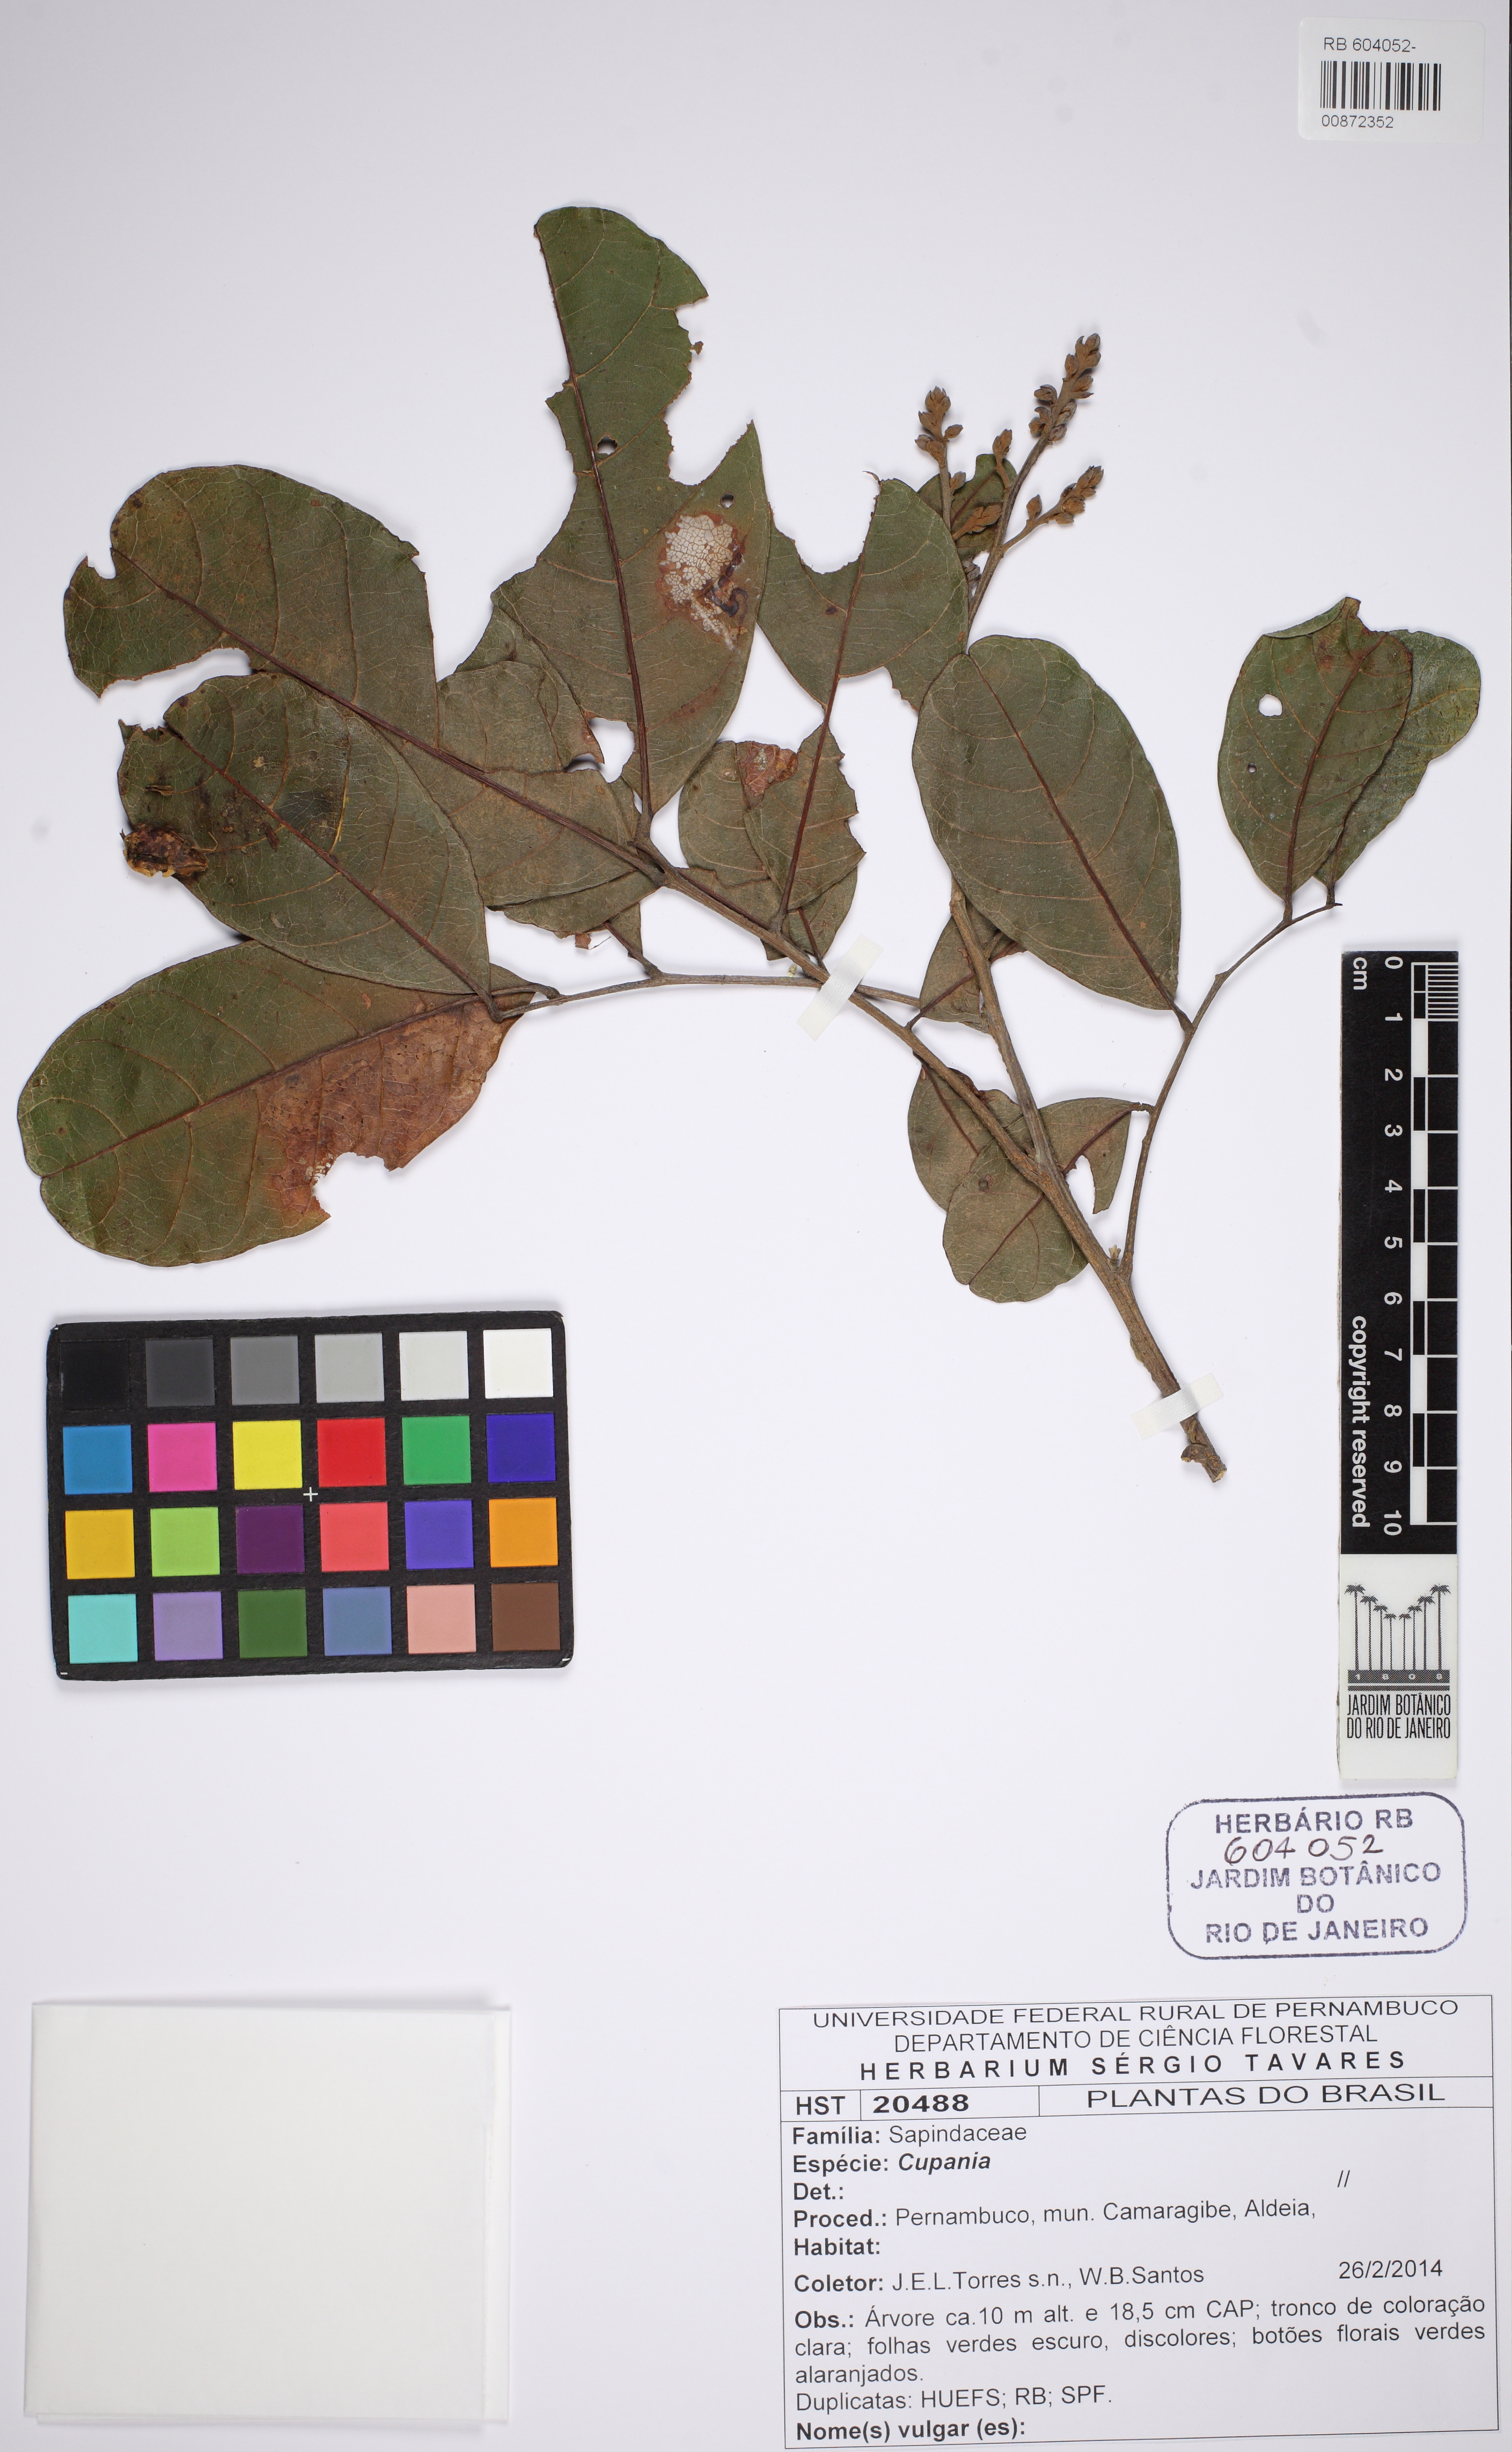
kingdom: Plantae
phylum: Tracheophyta
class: Magnoliopsida
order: Sapindales
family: Sapindaceae
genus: Cupania
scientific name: Cupania
